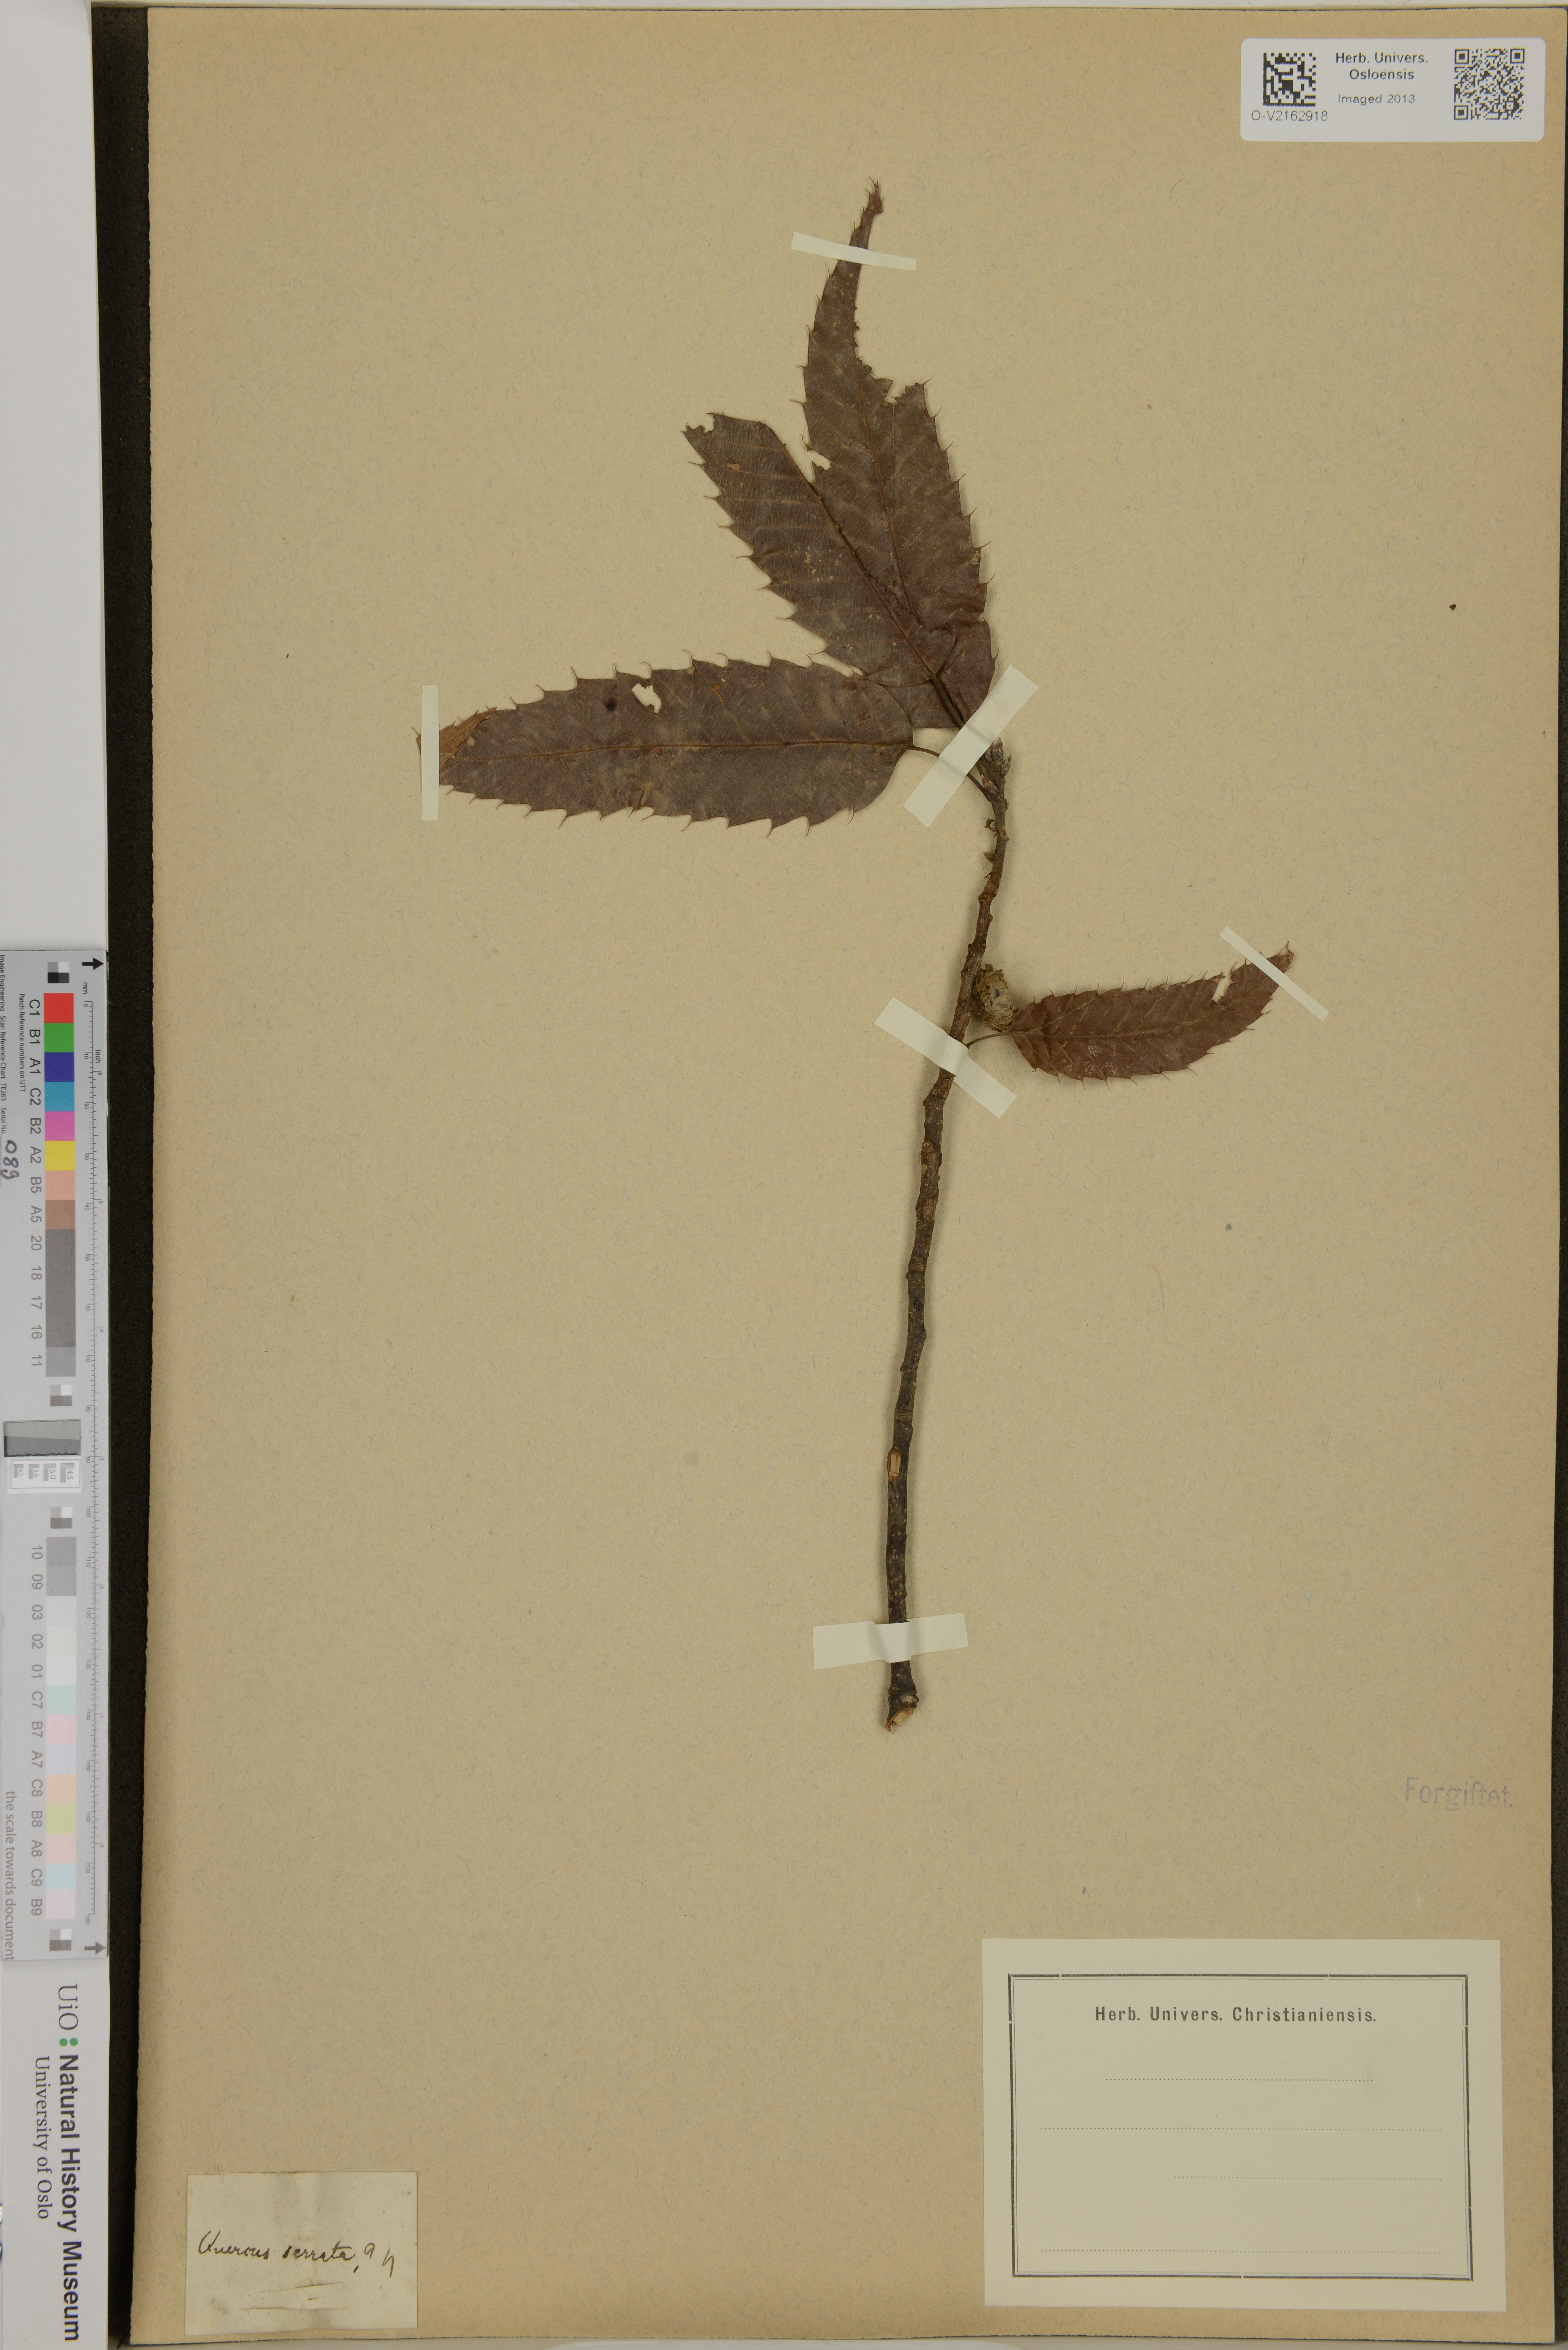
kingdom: Plantae
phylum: Tracheophyta
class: Magnoliopsida
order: Fagales
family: Fagaceae
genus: Quercus
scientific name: Quercus serrata
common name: Bao li
